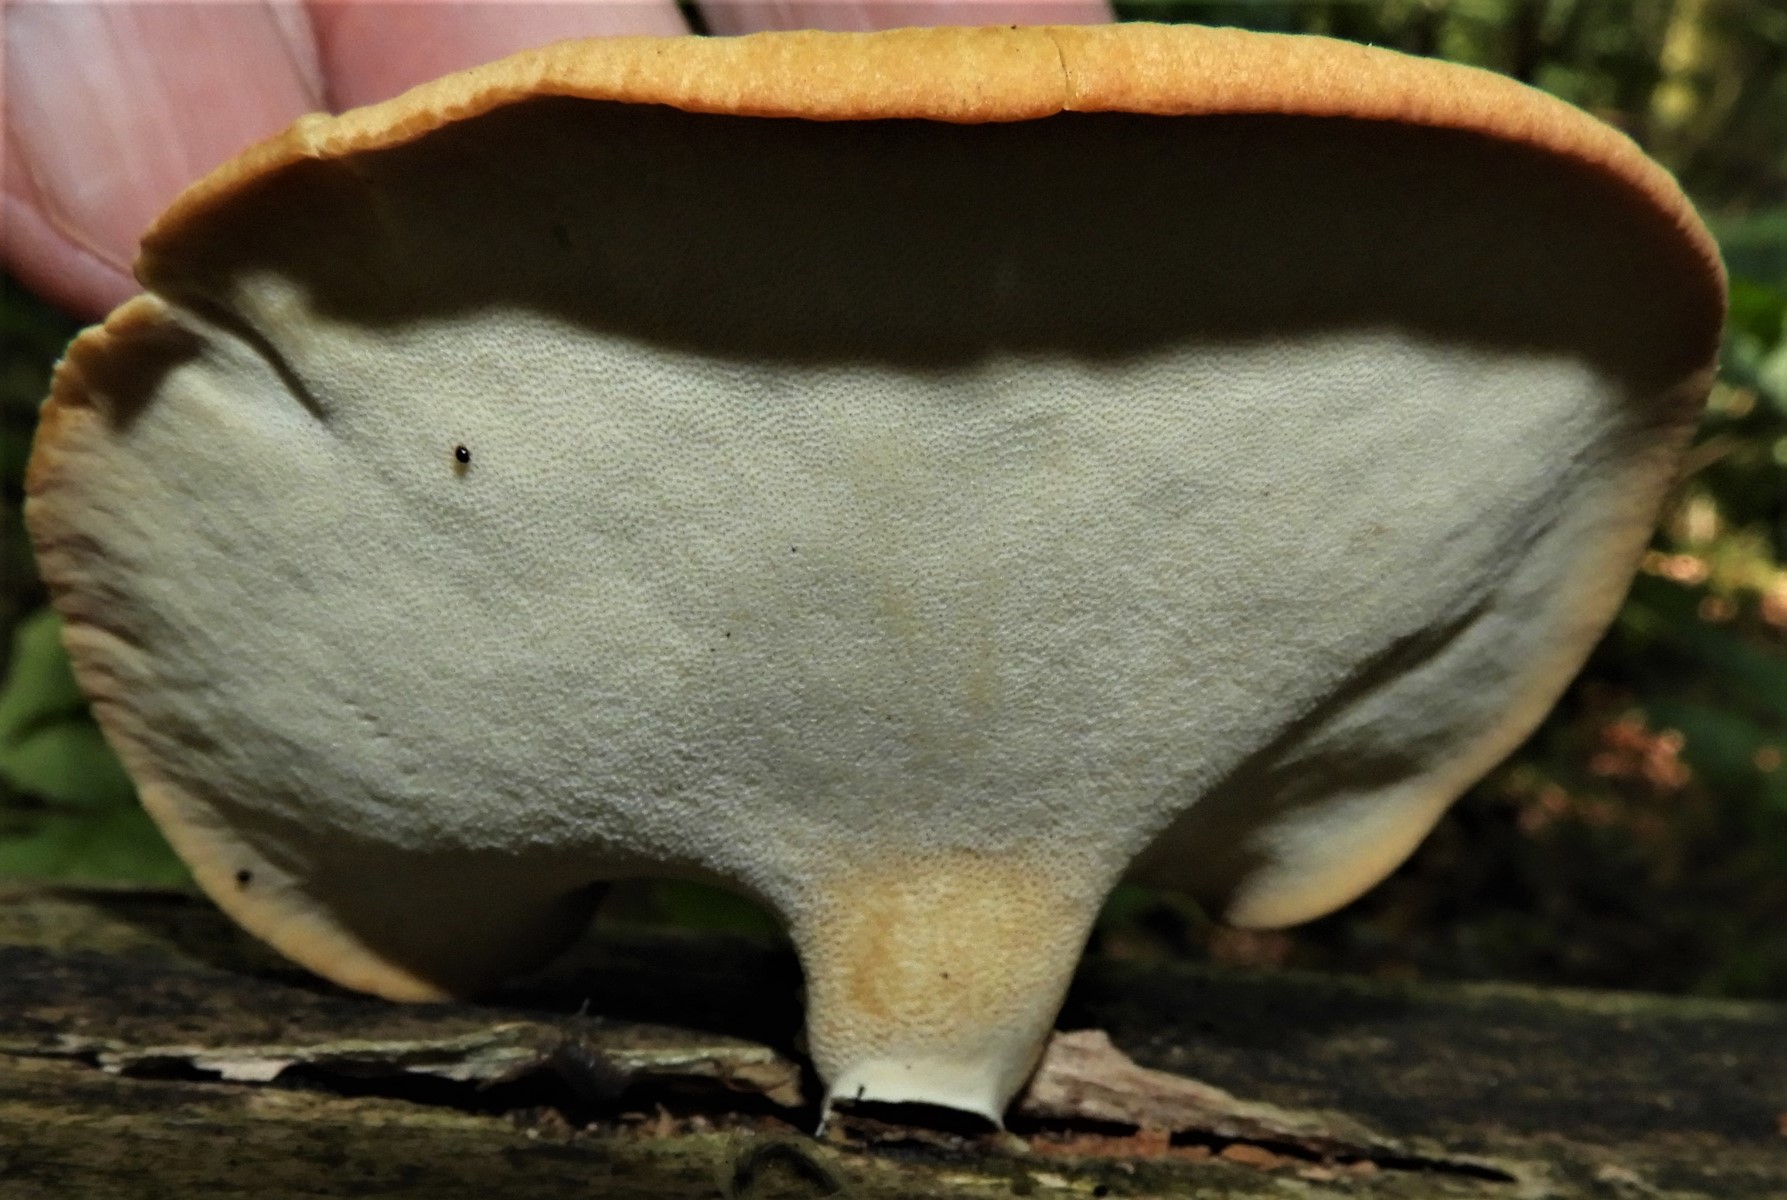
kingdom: Fungi
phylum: Basidiomycota
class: Agaricomycetes
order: Polyporales
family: Polyporaceae
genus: Cerioporus
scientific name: Cerioporus varius
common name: foranderlig stilkporesvamp
